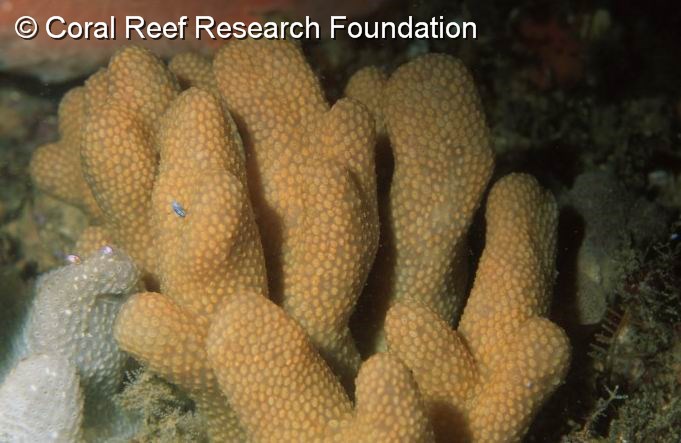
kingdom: Animalia
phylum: Chordata
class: Ascidiacea
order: Aplousobranchia
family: Pseudodistomidae
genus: Pseudodistoma
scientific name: Pseudodistoma
